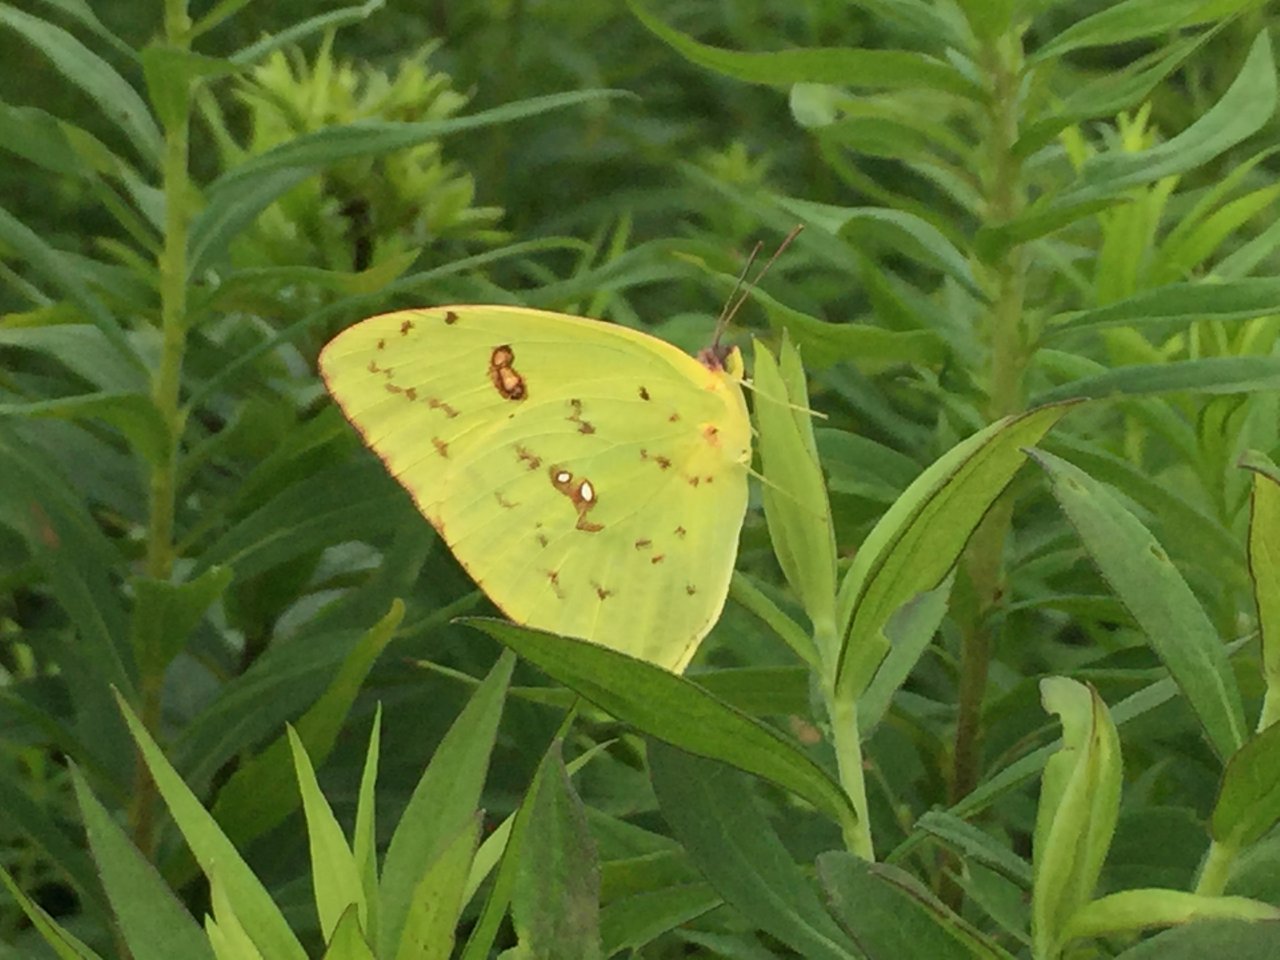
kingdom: Animalia
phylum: Arthropoda
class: Insecta
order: Lepidoptera
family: Pieridae
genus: Phoebis
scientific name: Phoebis sennae
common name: Cloudless Sulphur
